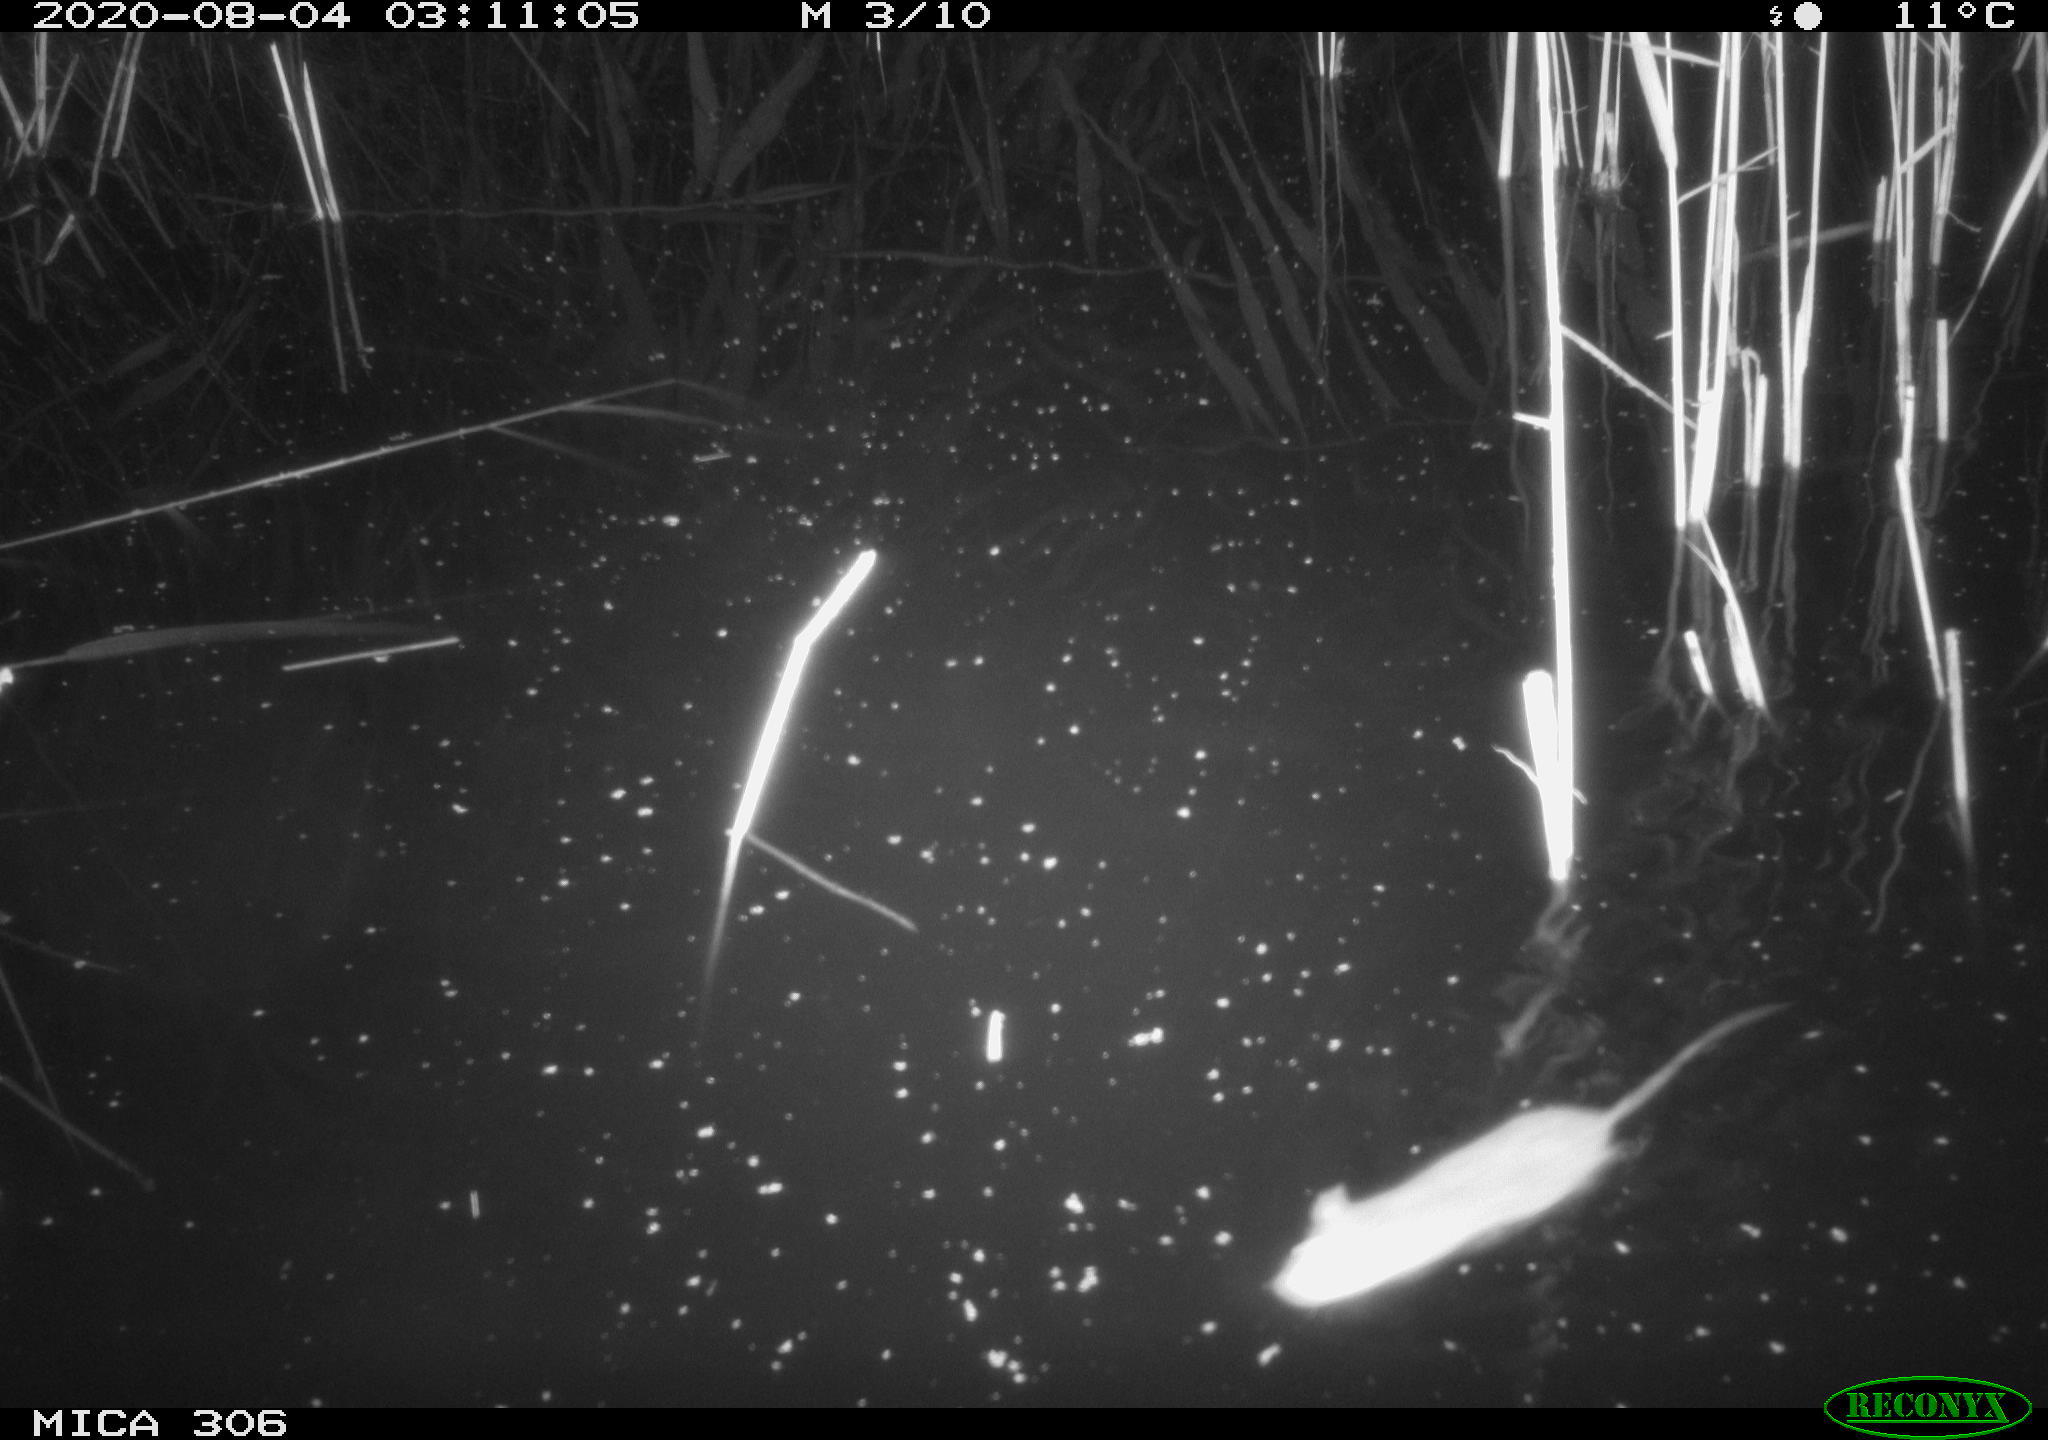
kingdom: Animalia
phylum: Chordata
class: Mammalia
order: Rodentia
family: Muridae
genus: Rattus
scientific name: Rattus norvegicus
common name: Brown rat
